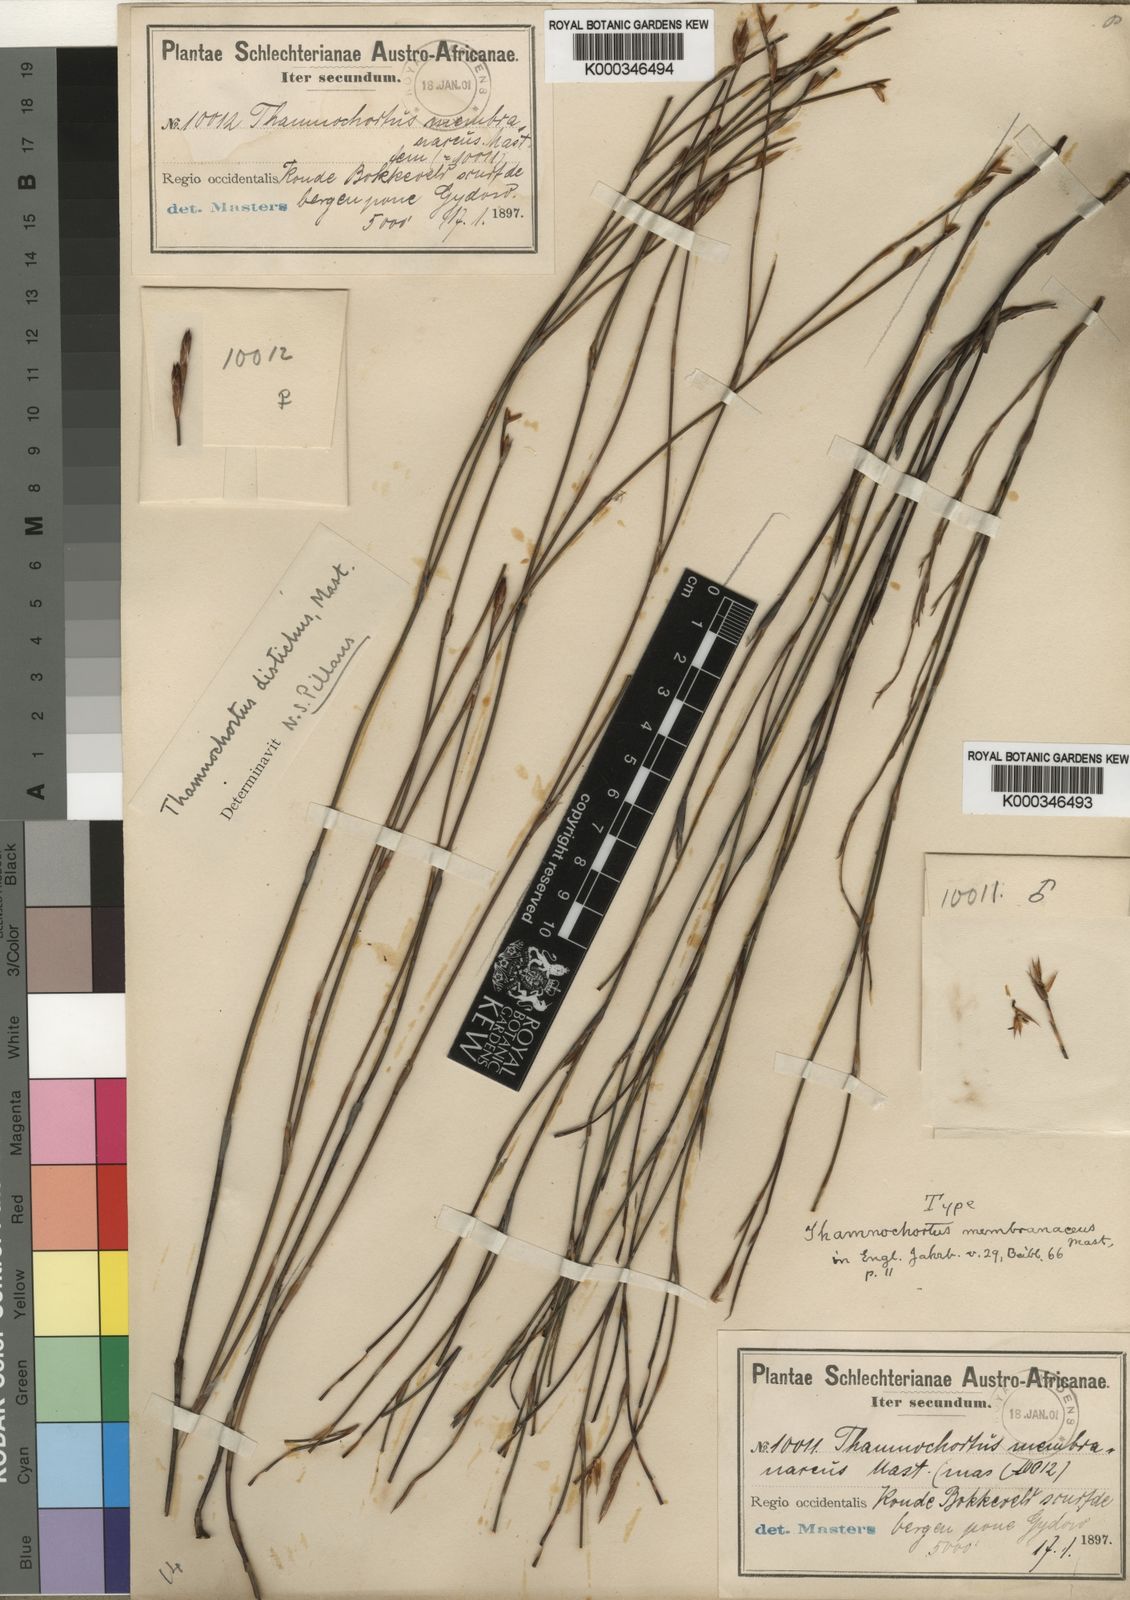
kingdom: Plantae
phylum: Tracheophyta
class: Liliopsida
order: Poales
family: Restionaceae
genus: Restio
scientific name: Restio distichus
